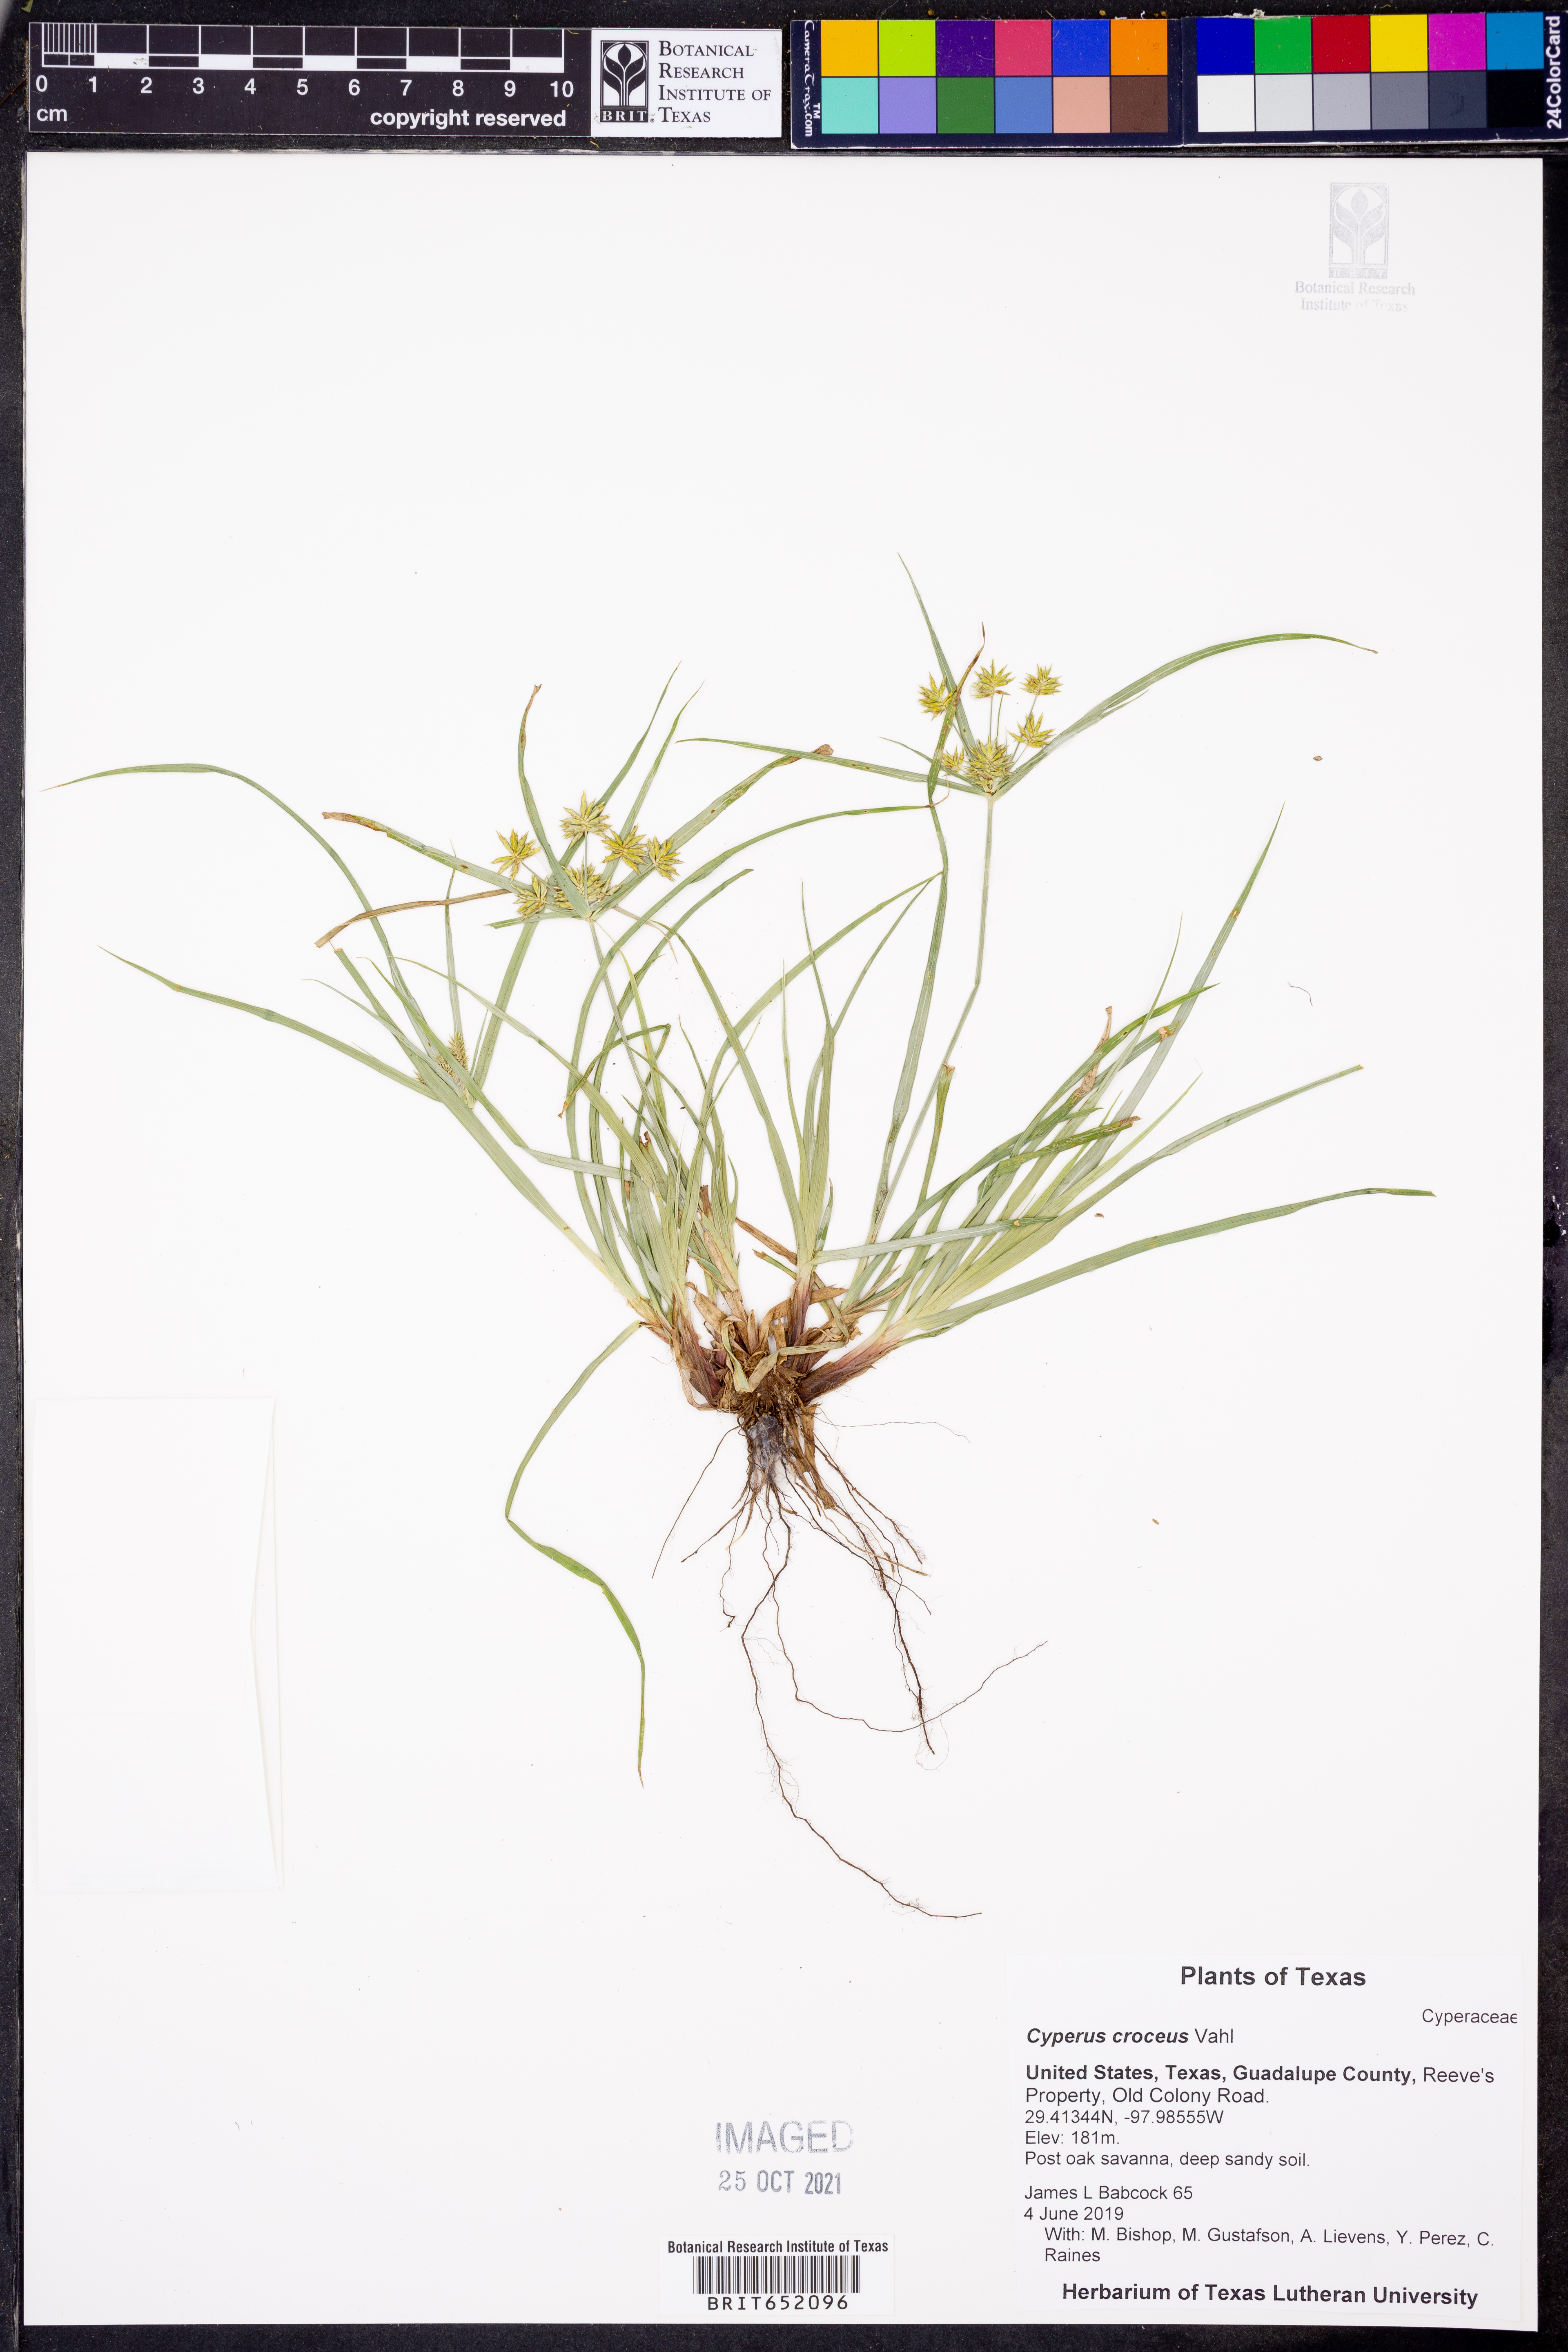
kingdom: Plantae
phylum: Tracheophyta
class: Liliopsida
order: Poales
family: Cyperaceae
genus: Cyperus
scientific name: Cyperus croceus
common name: Baldwin's flatsedge
